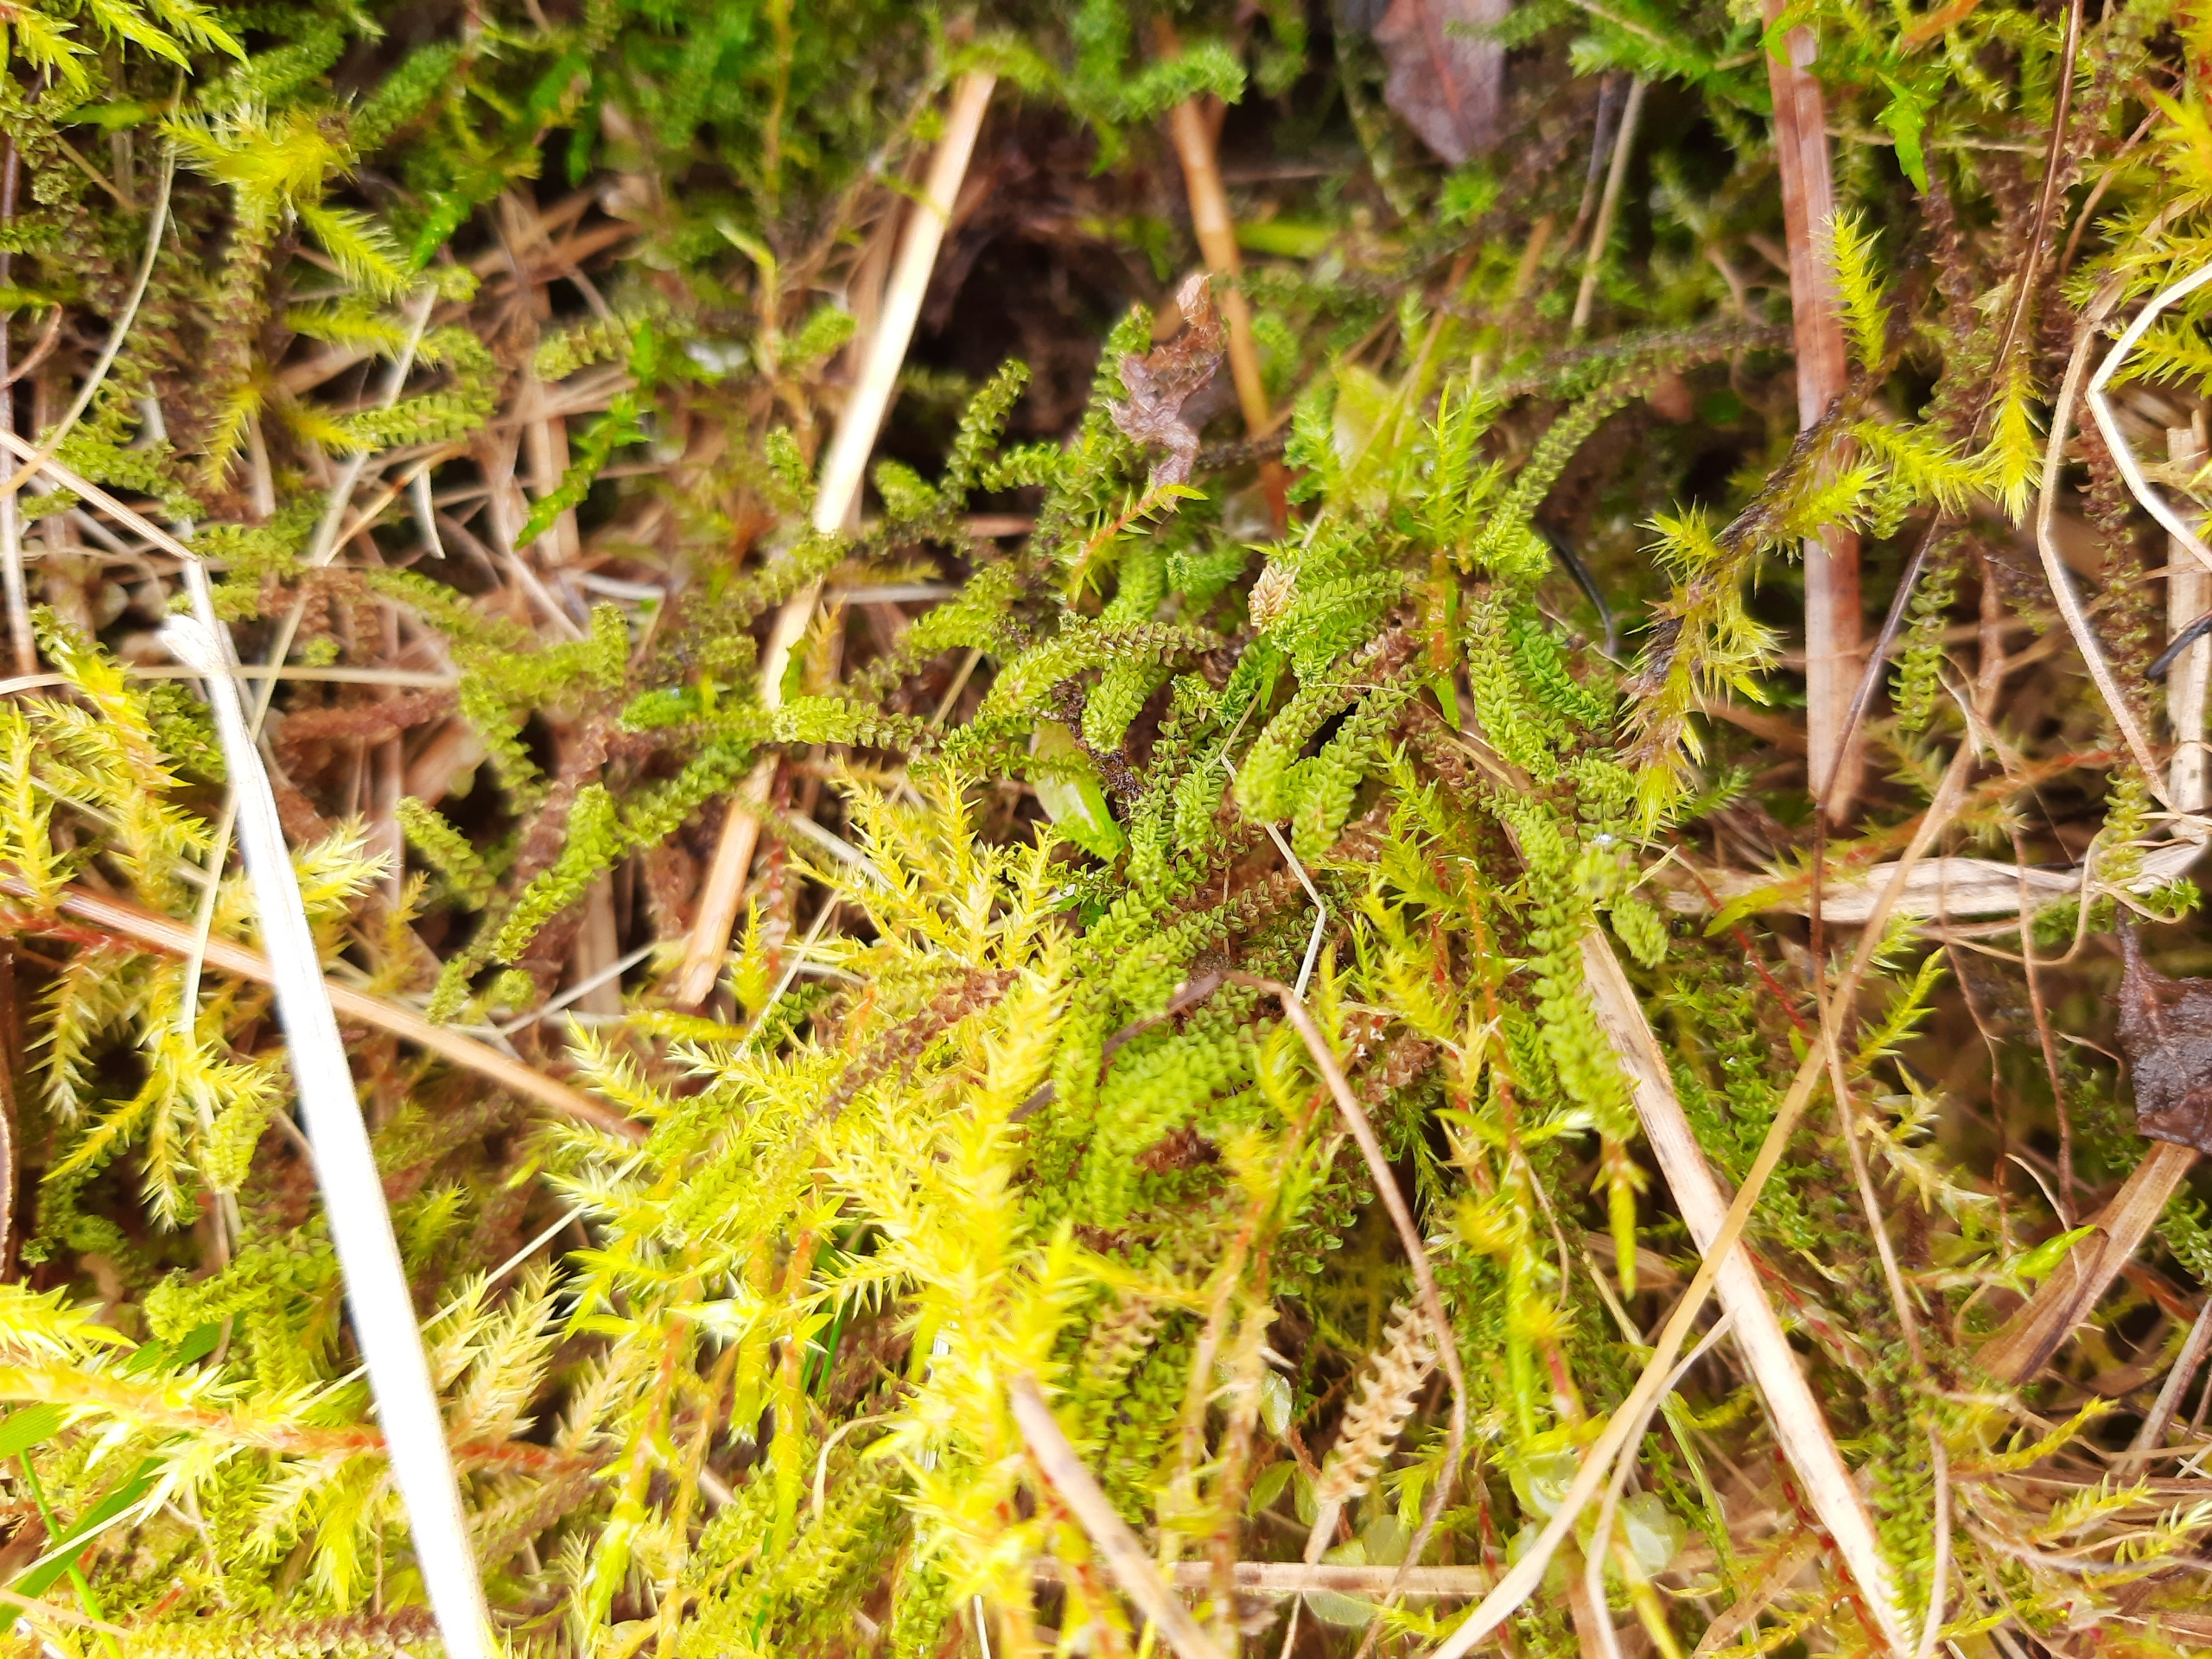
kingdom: Plantae
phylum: Bryophyta
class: Bryopsida
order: Splachnales
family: Meesiaceae
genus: Paludella
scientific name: Paludella squarrosa
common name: Almindelig piberensermos
